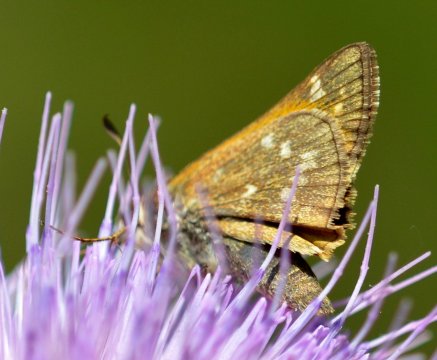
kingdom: Animalia
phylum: Arthropoda
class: Insecta
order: Lepidoptera
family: Hesperiidae
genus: Atalopedes
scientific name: Atalopedes campestris
